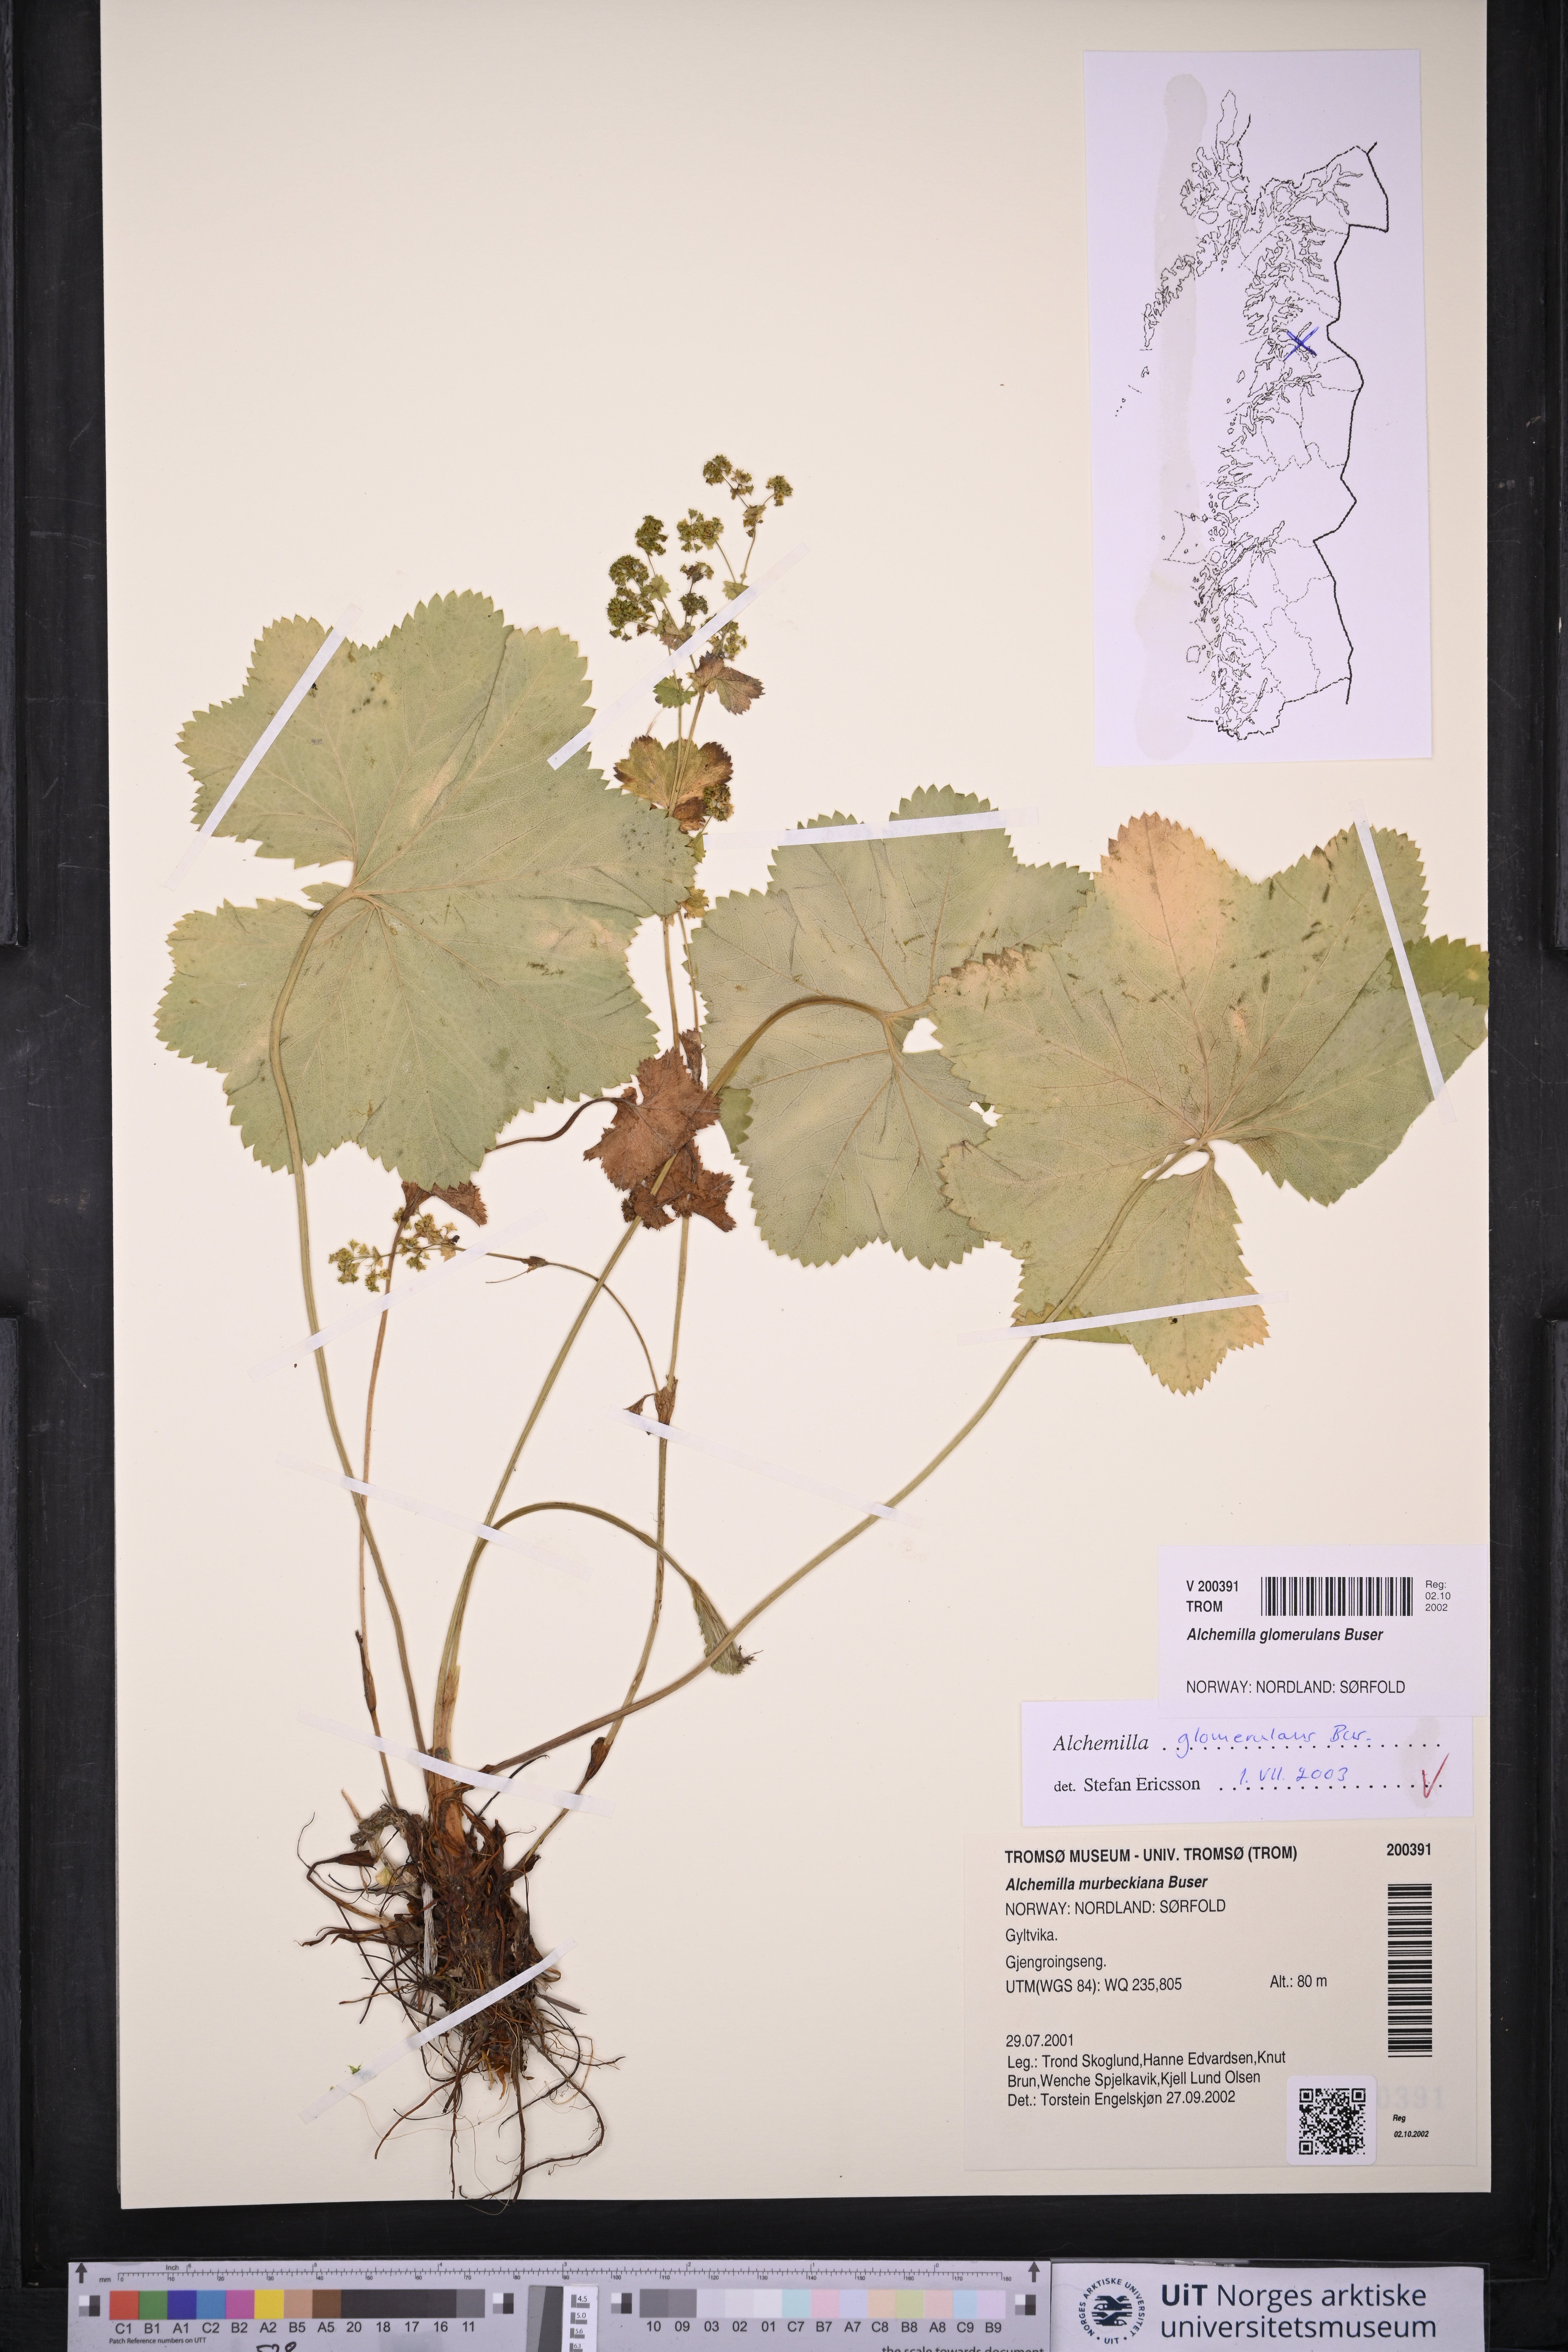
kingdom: Plantae
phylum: Tracheophyta
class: Magnoliopsida
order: Rosales
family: Rosaceae
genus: Alchemilla
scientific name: Alchemilla glomerulans
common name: Clustered lady's mantle
